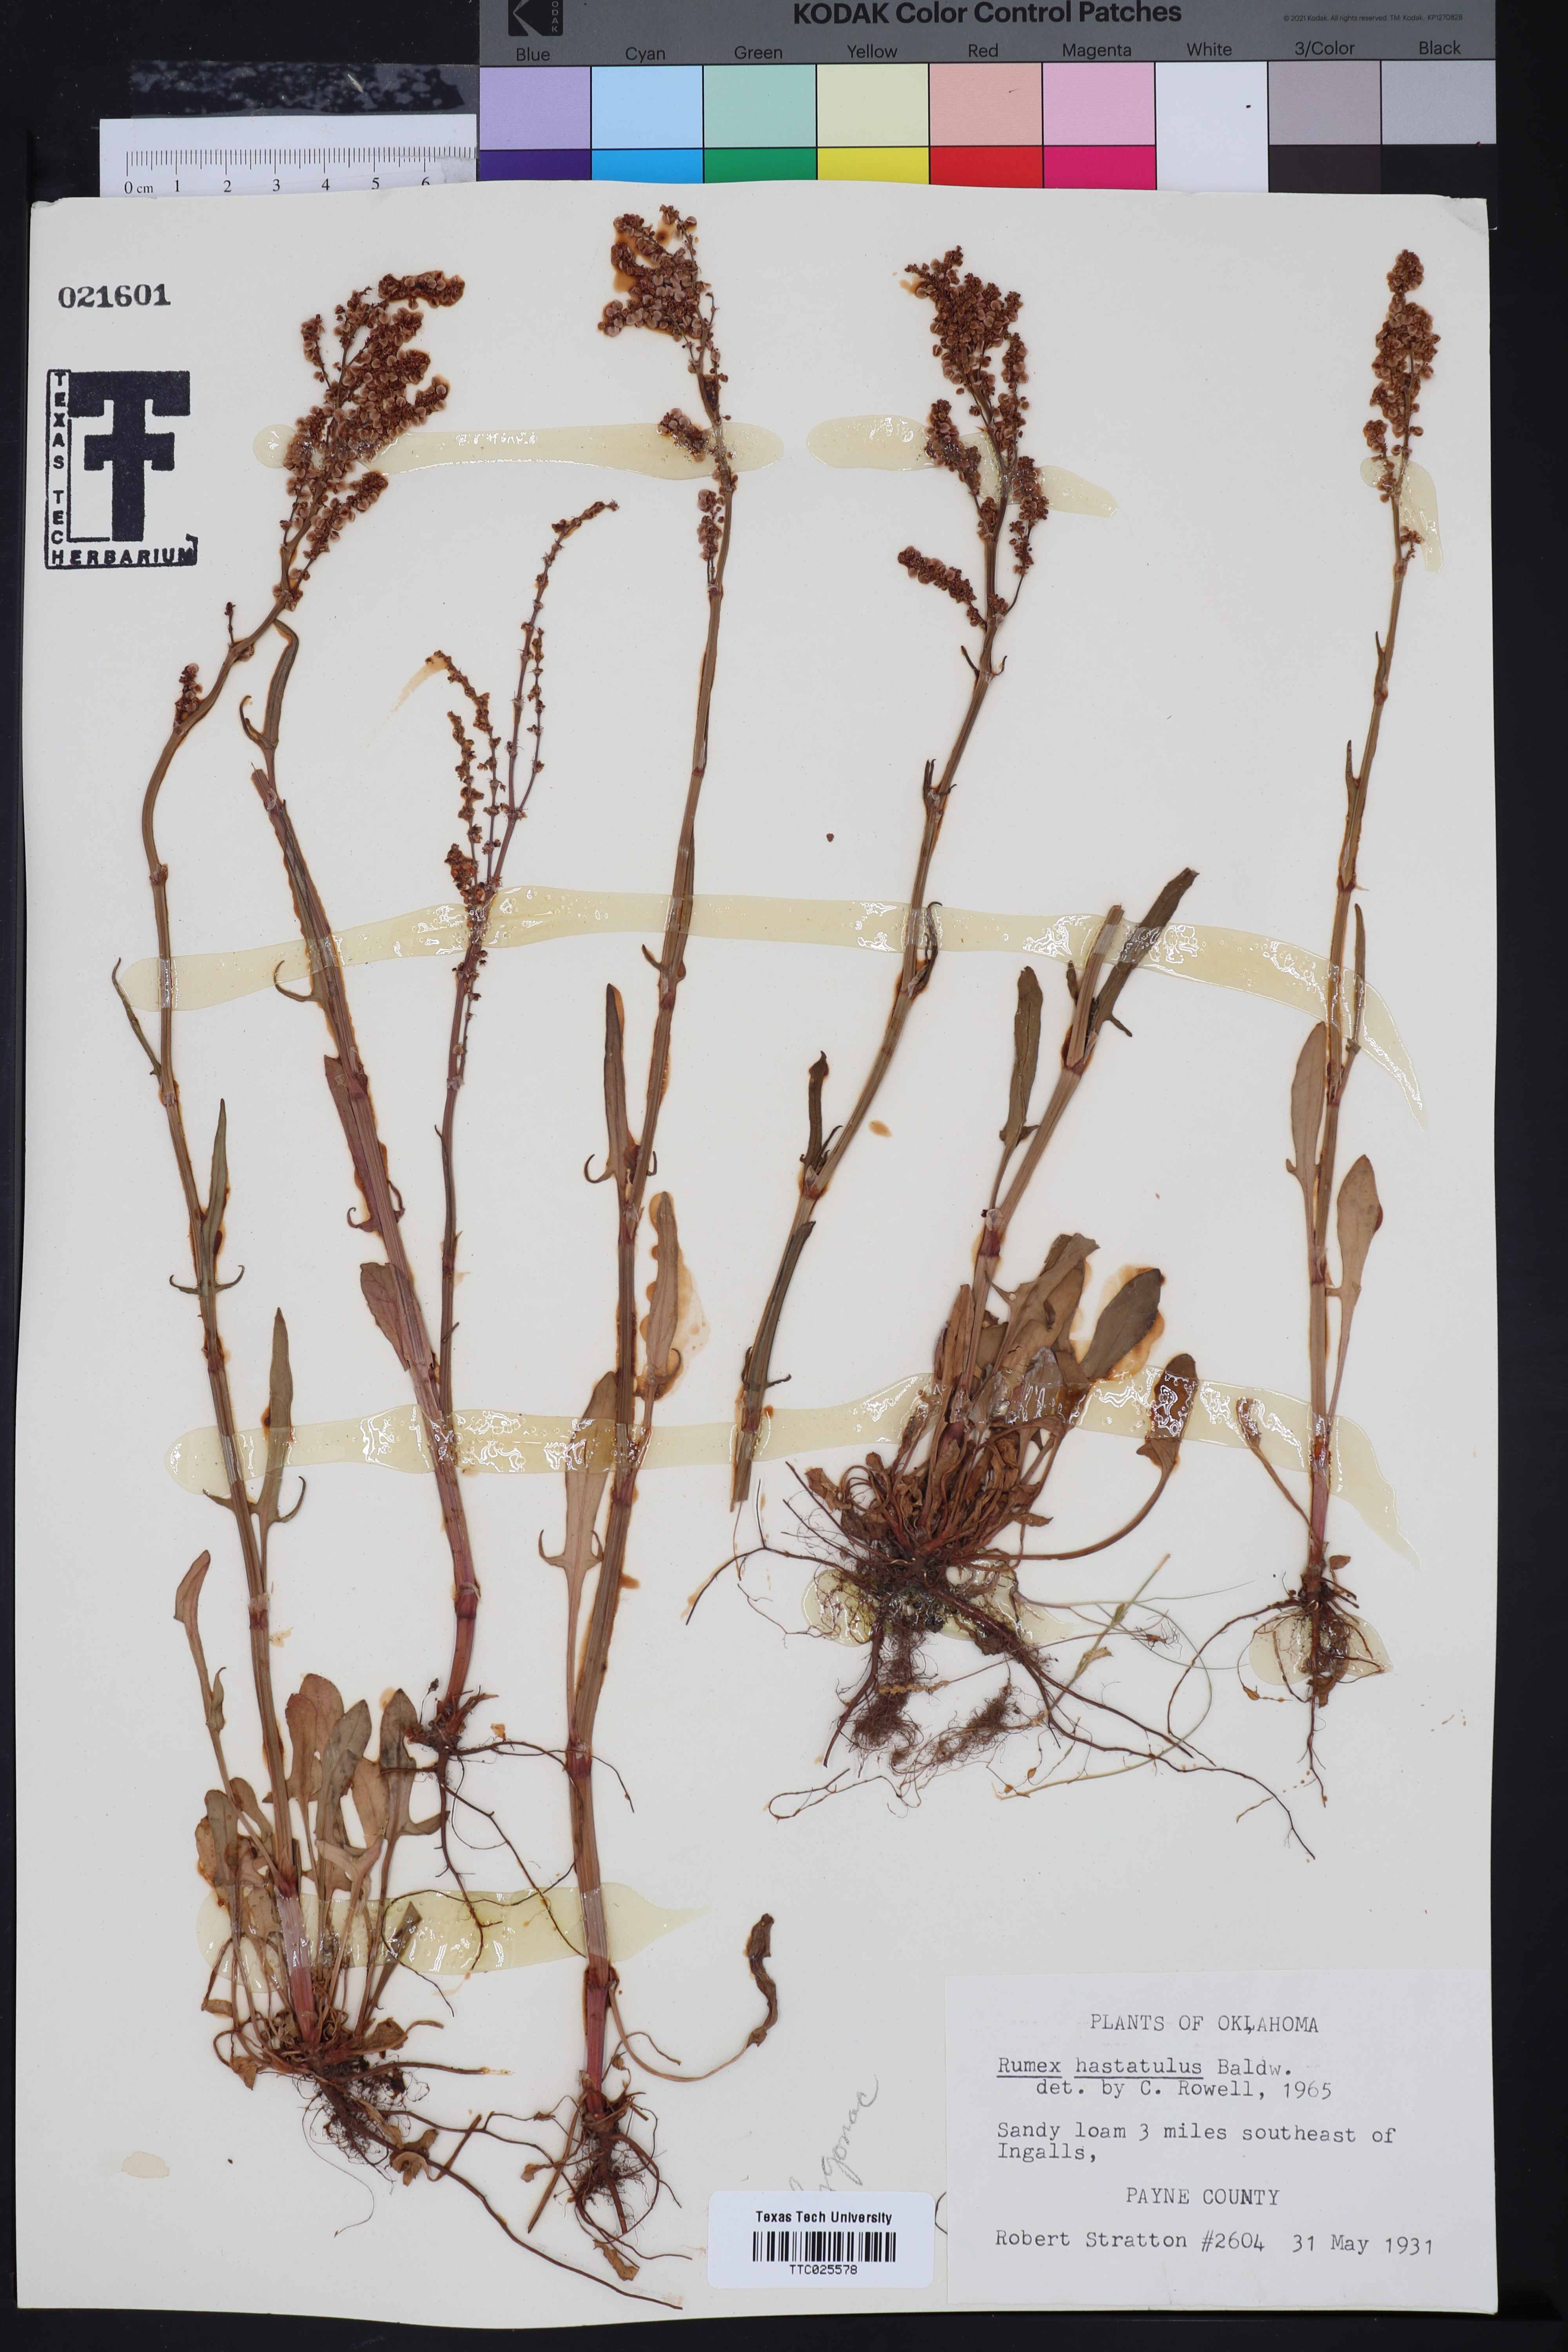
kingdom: Plantae
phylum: Tracheophyta
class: Magnoliopsida
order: Caryophyllales
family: Polygonaceae
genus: Rumex
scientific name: Rumex hastatulus
